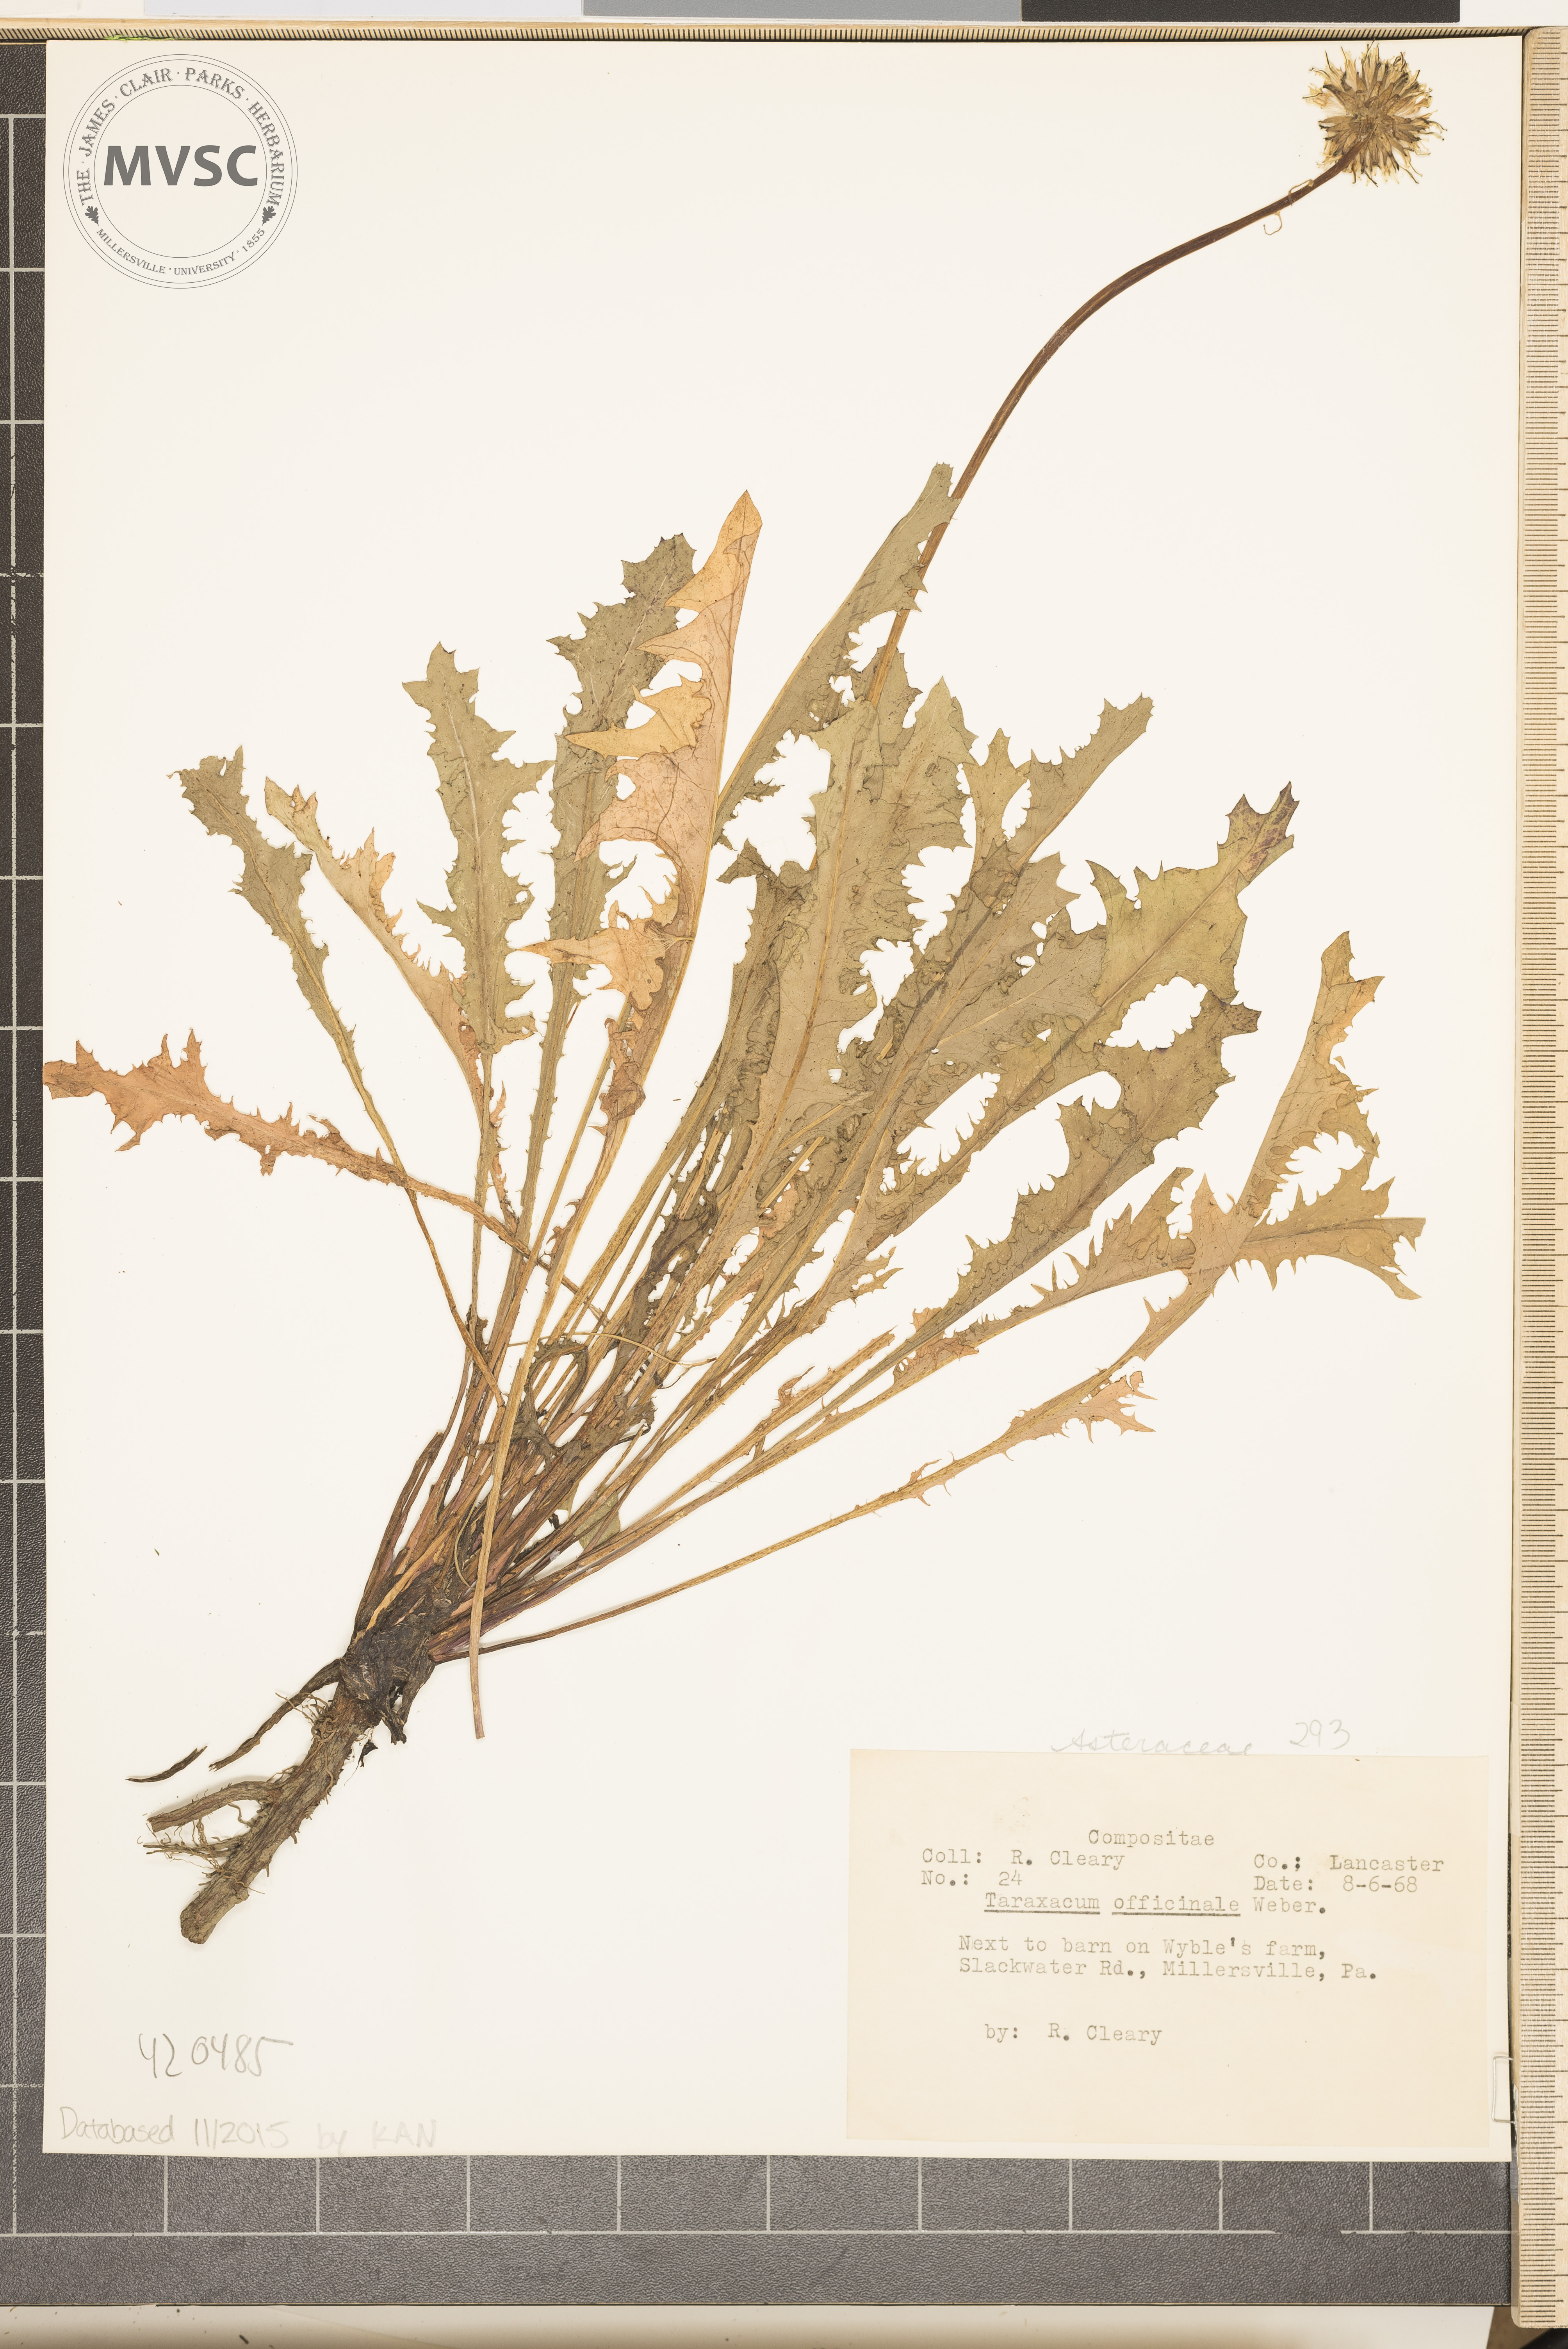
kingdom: Plantae
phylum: Tracheophyta
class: Magnoliopsida
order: Asterales
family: Asteraceae
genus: Taraxacum
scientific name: Taraxacum officinale
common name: Common Dandelion
